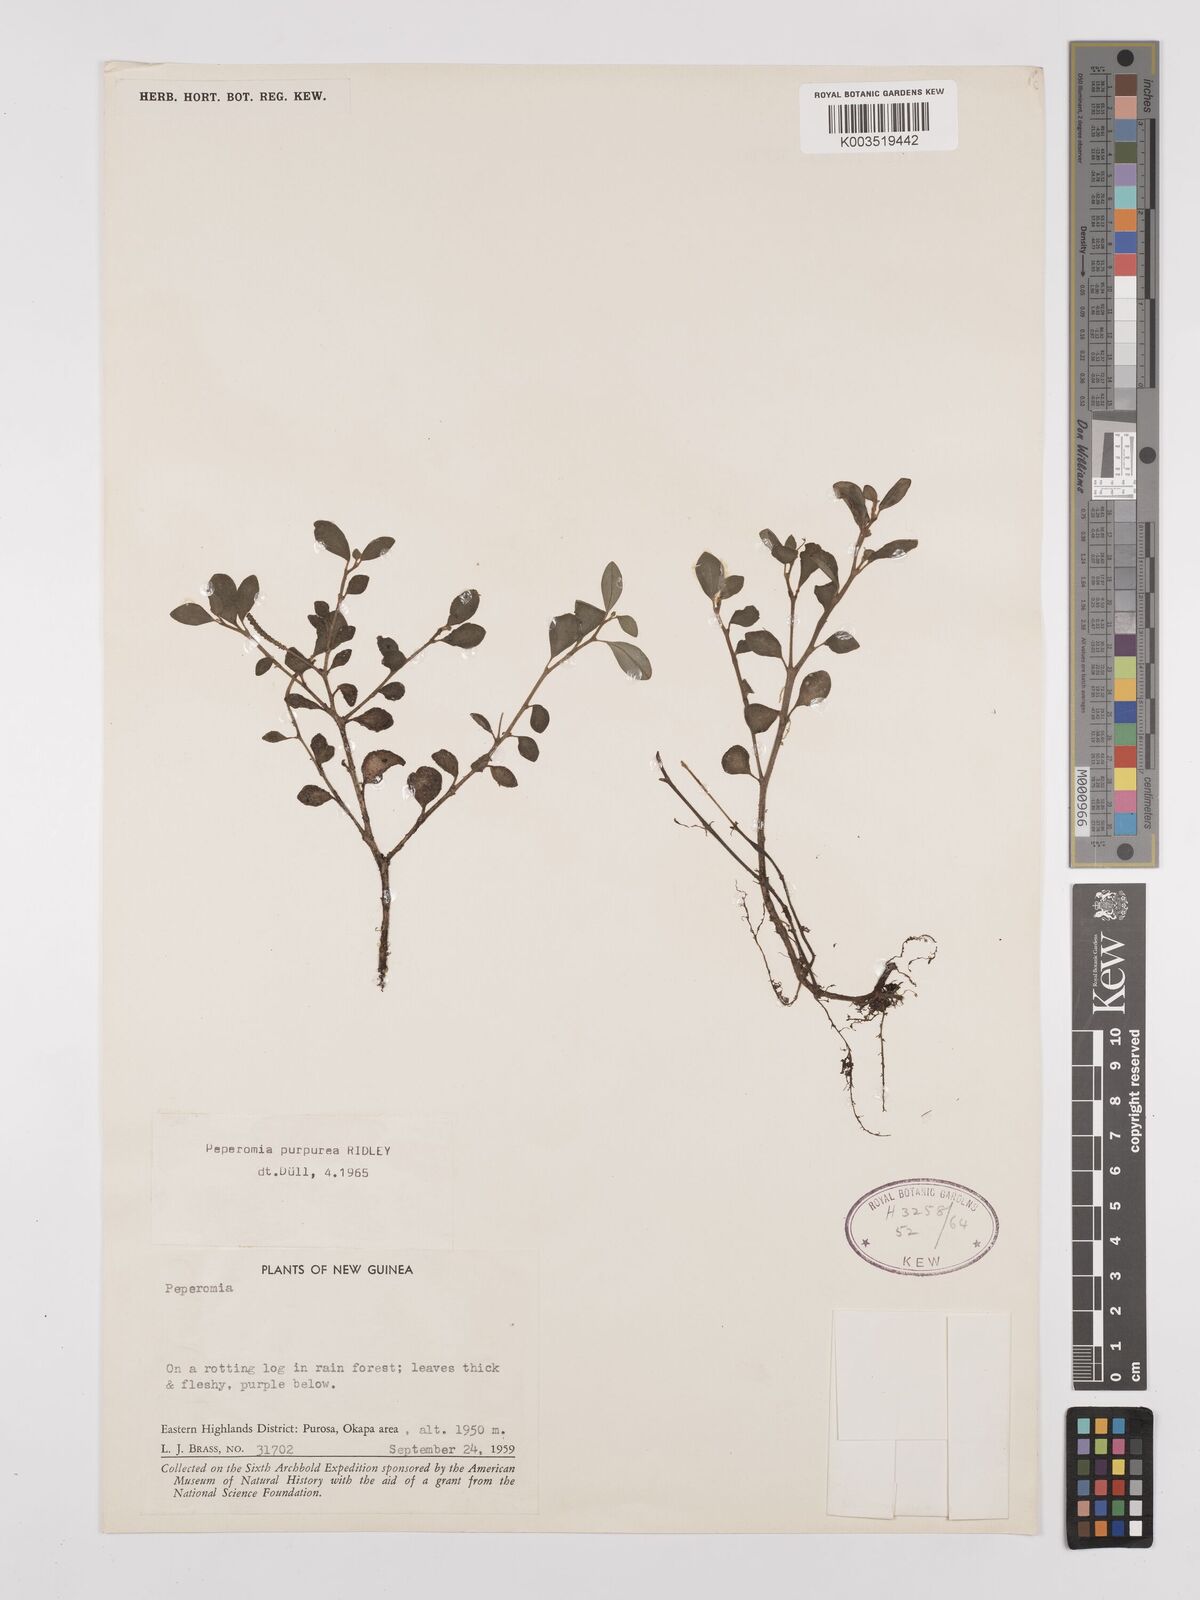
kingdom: Plantae
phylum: Tracheophyta
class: Magnoliopsida
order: Piperales
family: Piperaceae
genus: Peperomia
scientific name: Peperomia colossina
